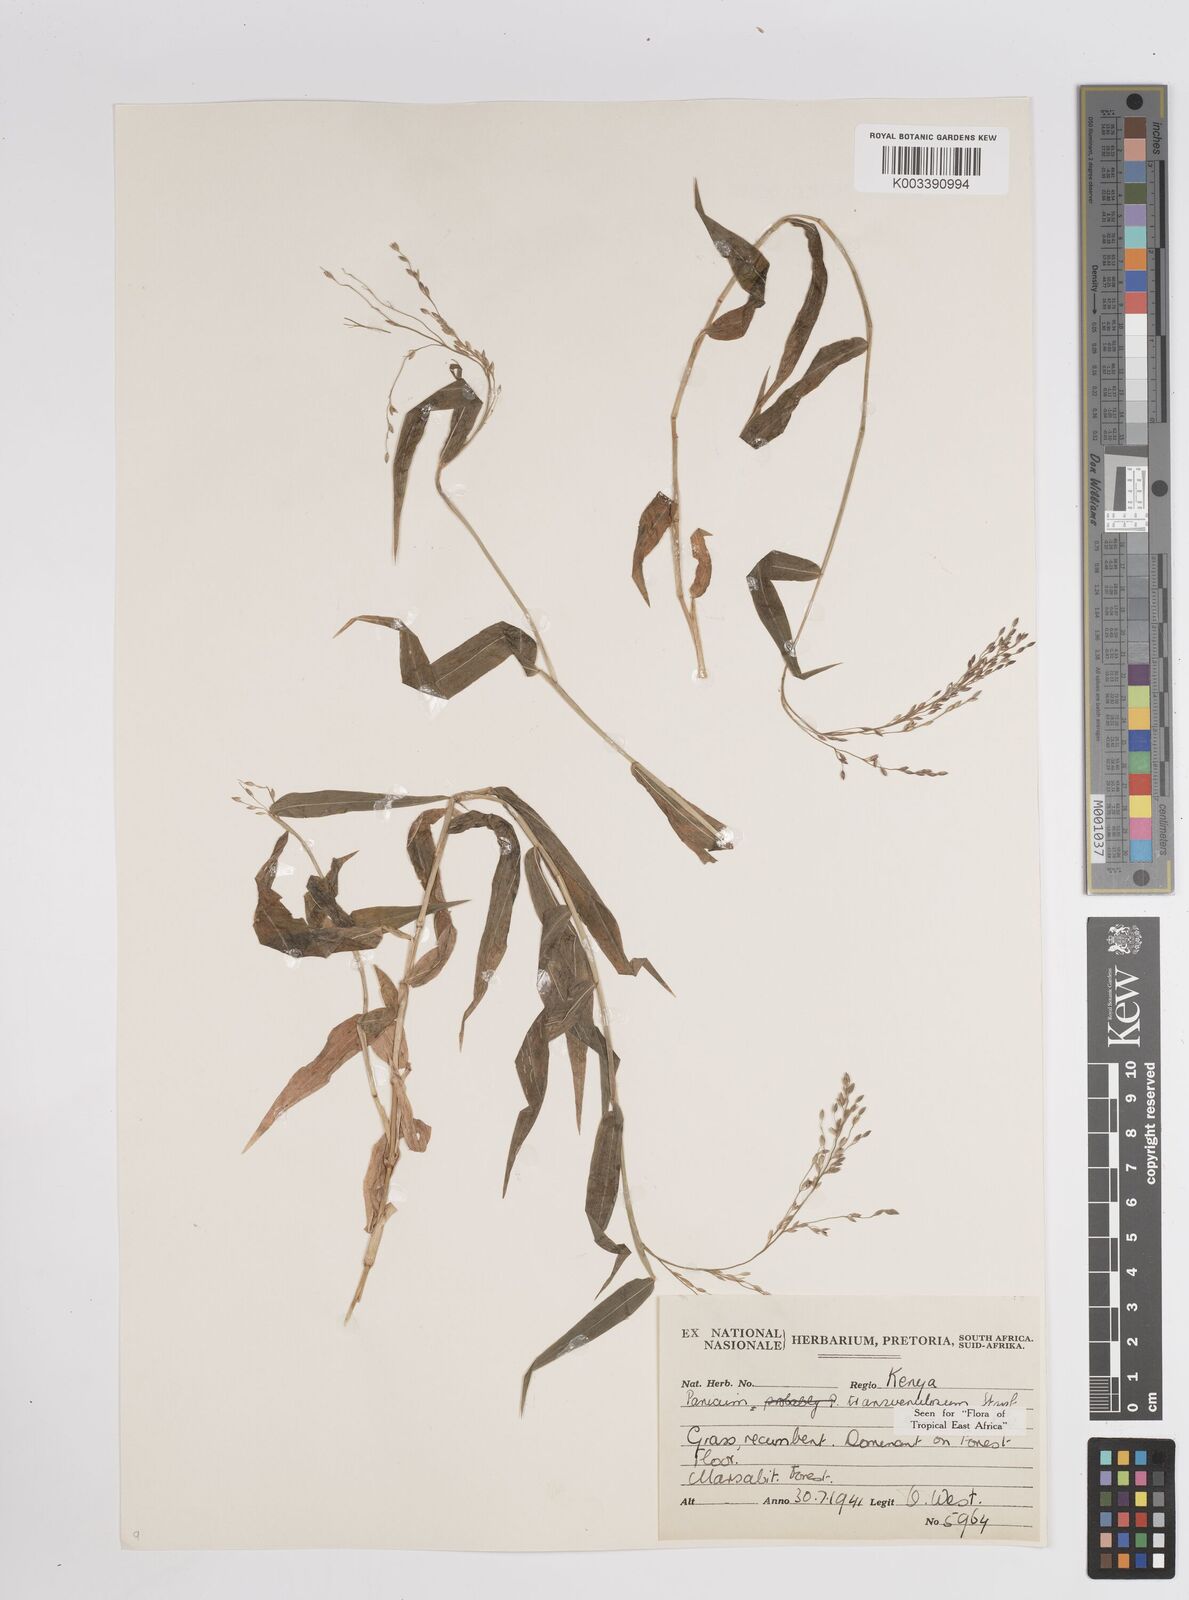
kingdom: Plantae
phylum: Tracheophyta
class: Liliopsida
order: Poales
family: Poaceae
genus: Panicum
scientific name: Panicum monticola
